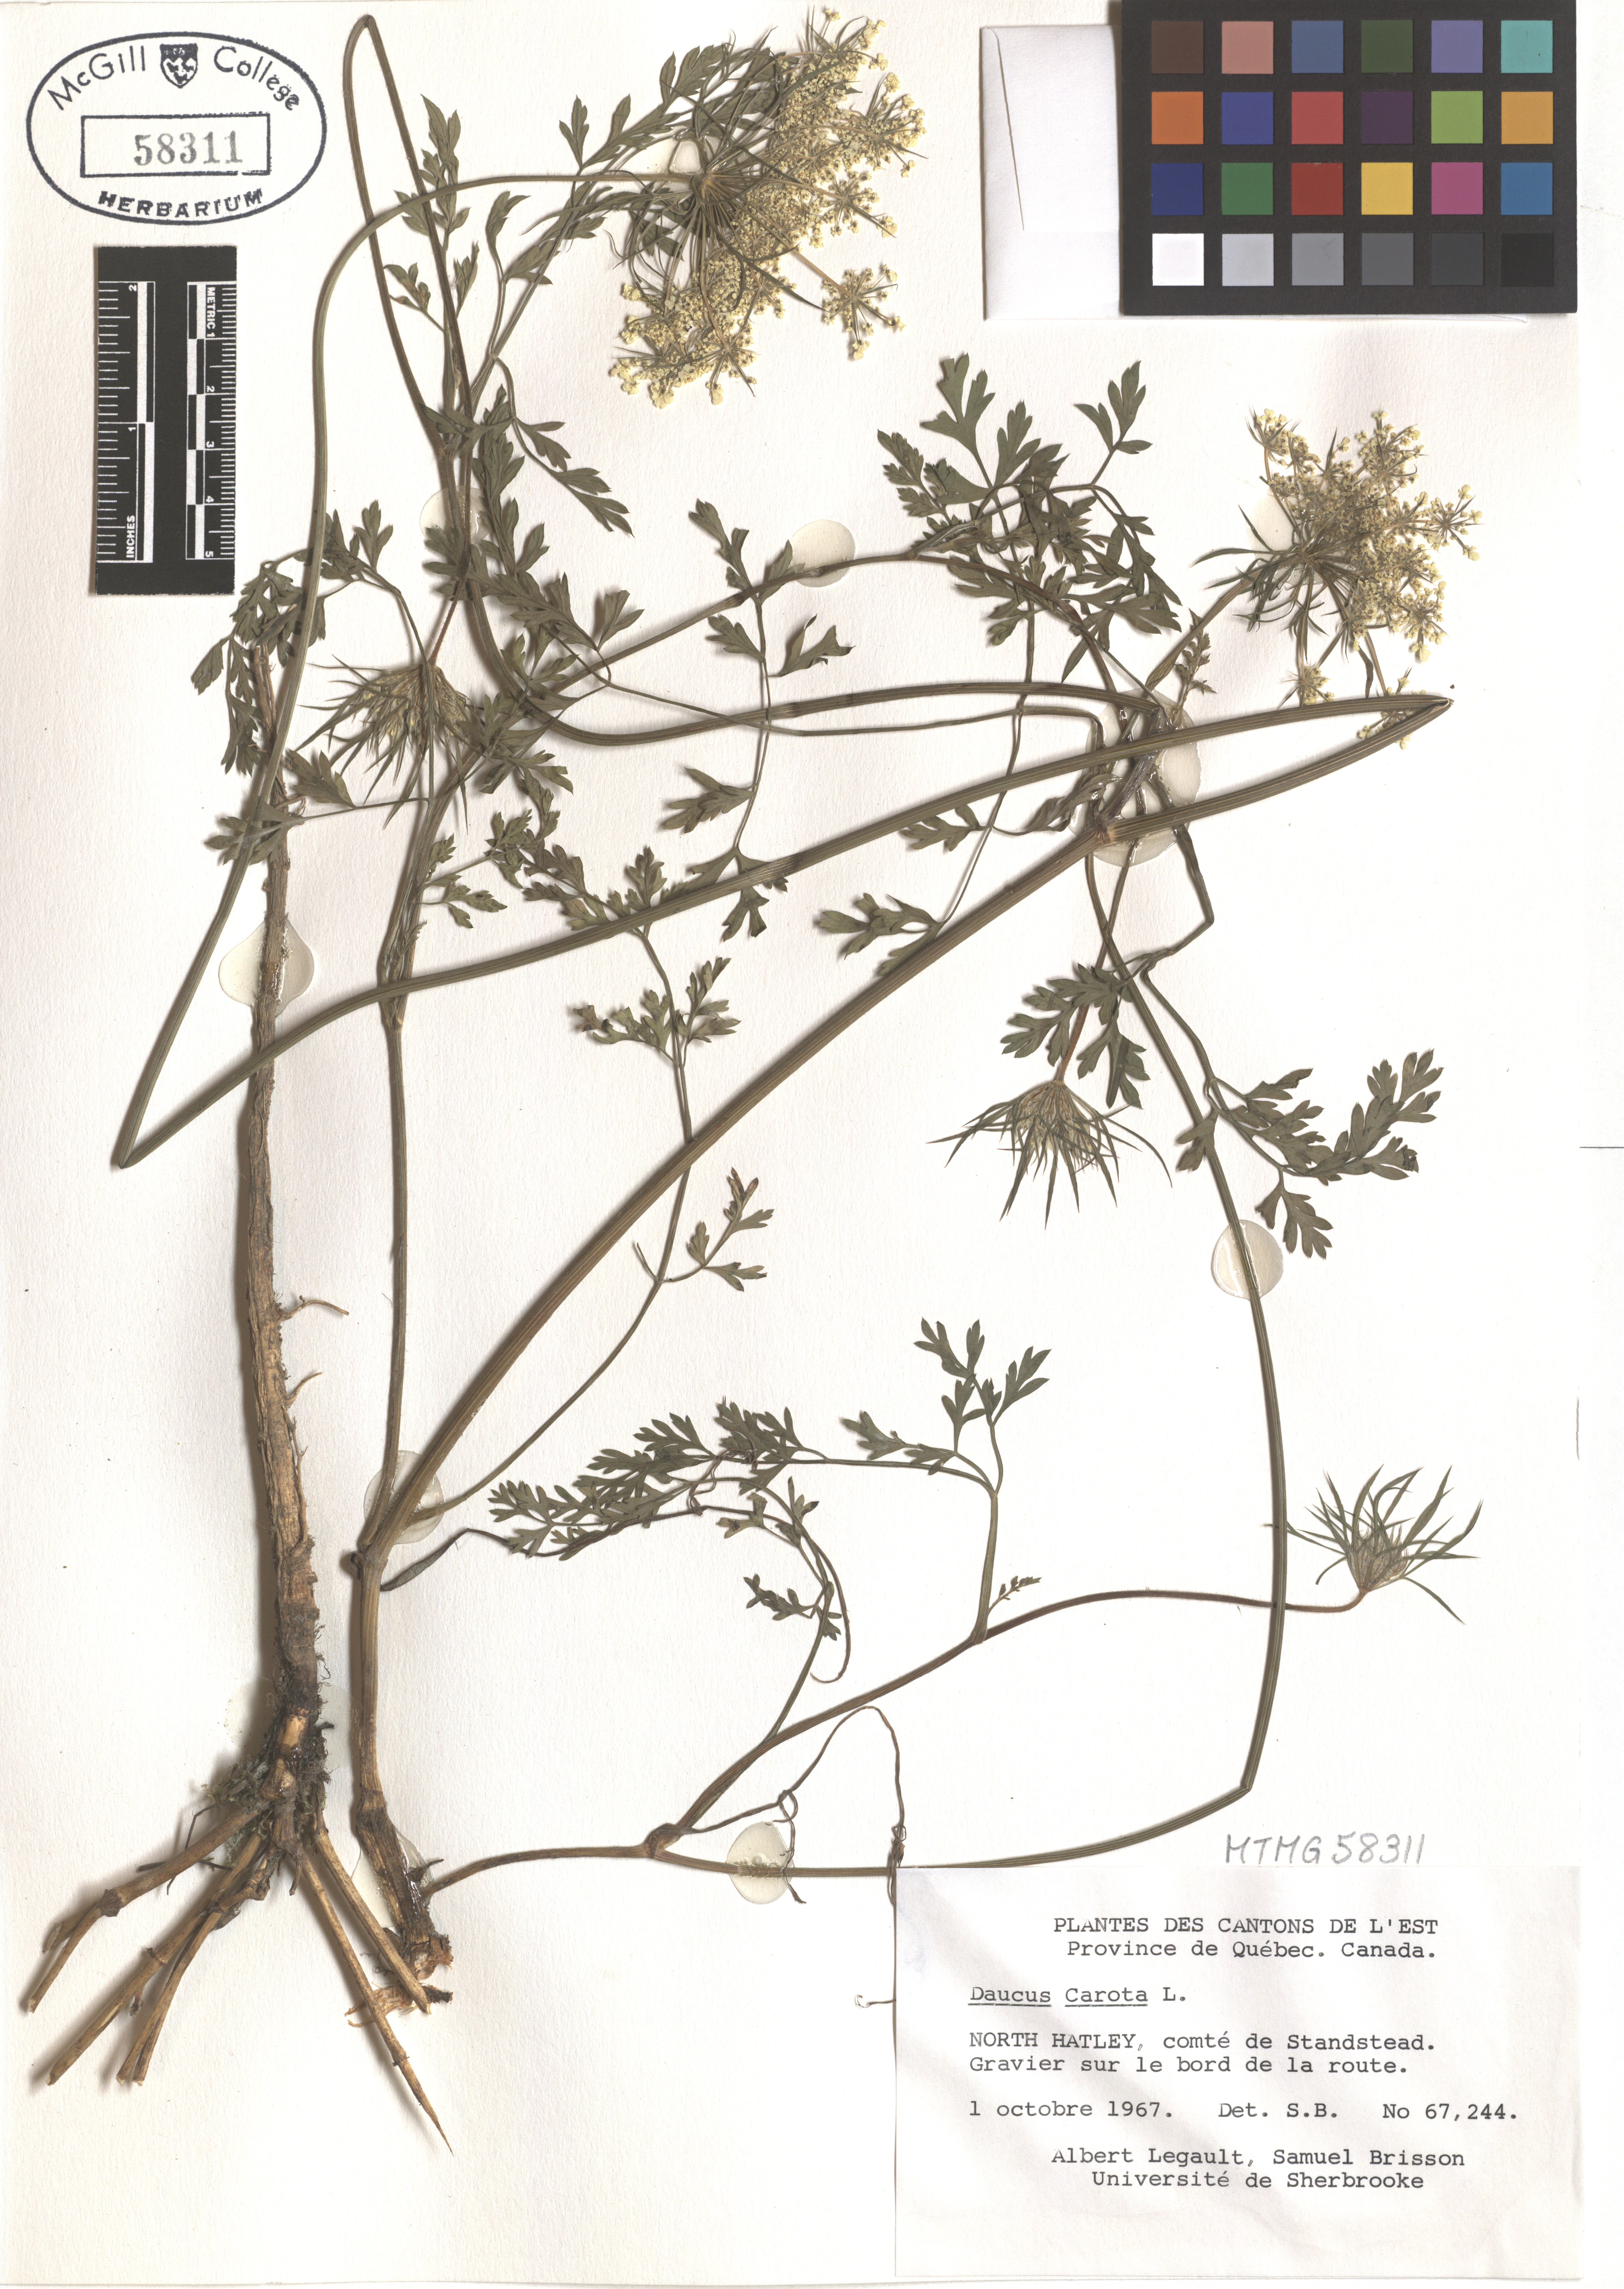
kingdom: Plantae
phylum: Tracheophyta
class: Magnoliopsida
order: Apiales
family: Apiaceae
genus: Daucus
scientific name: Daucus carota
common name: Wild carrot
